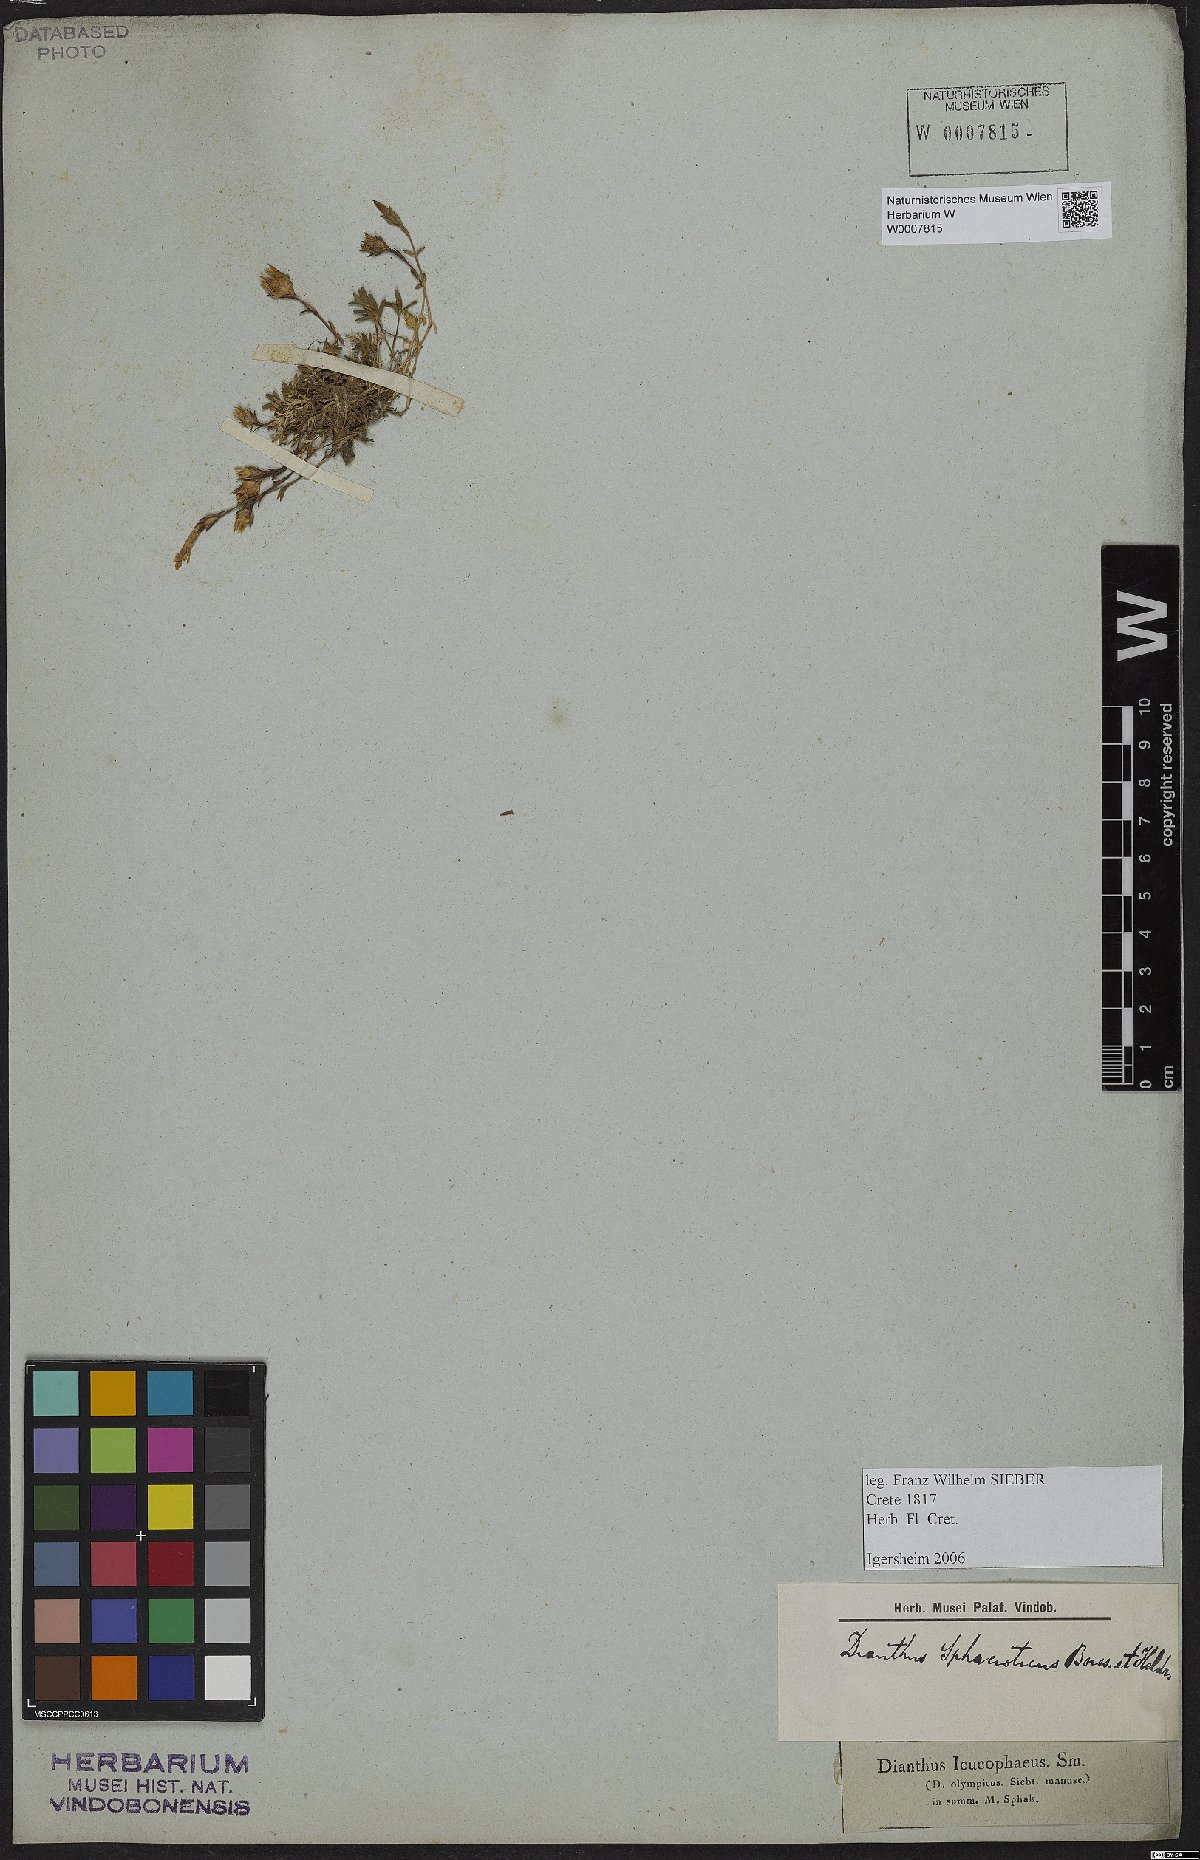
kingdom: Plantae
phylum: Tracheophyta
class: Magnoliopsida
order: Caryophyllales
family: Caryophyllaceae
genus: Dianthus
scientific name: Dianthus sphacioticus
